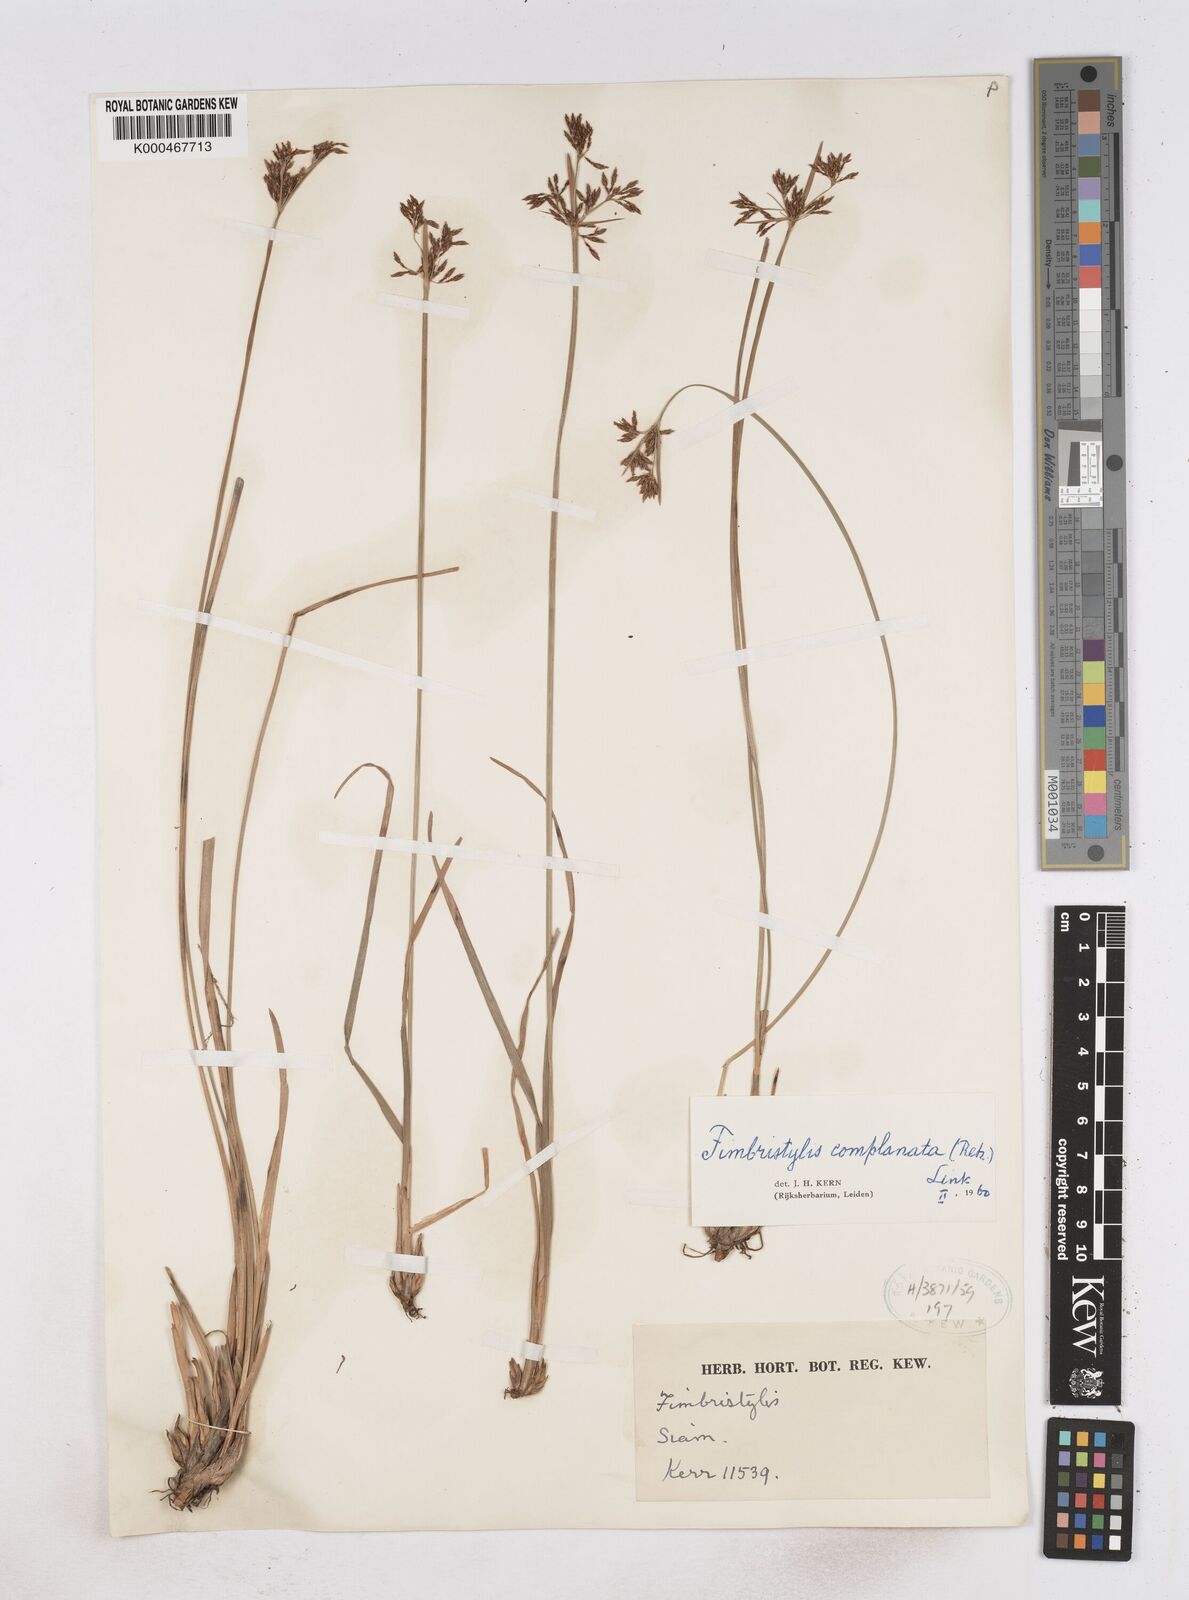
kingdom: Plantae
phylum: Tracheophyta
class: Liliopsida
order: Poales
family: Cyperaceae
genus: Fimbristylis
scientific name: Fimbristylis complanata
